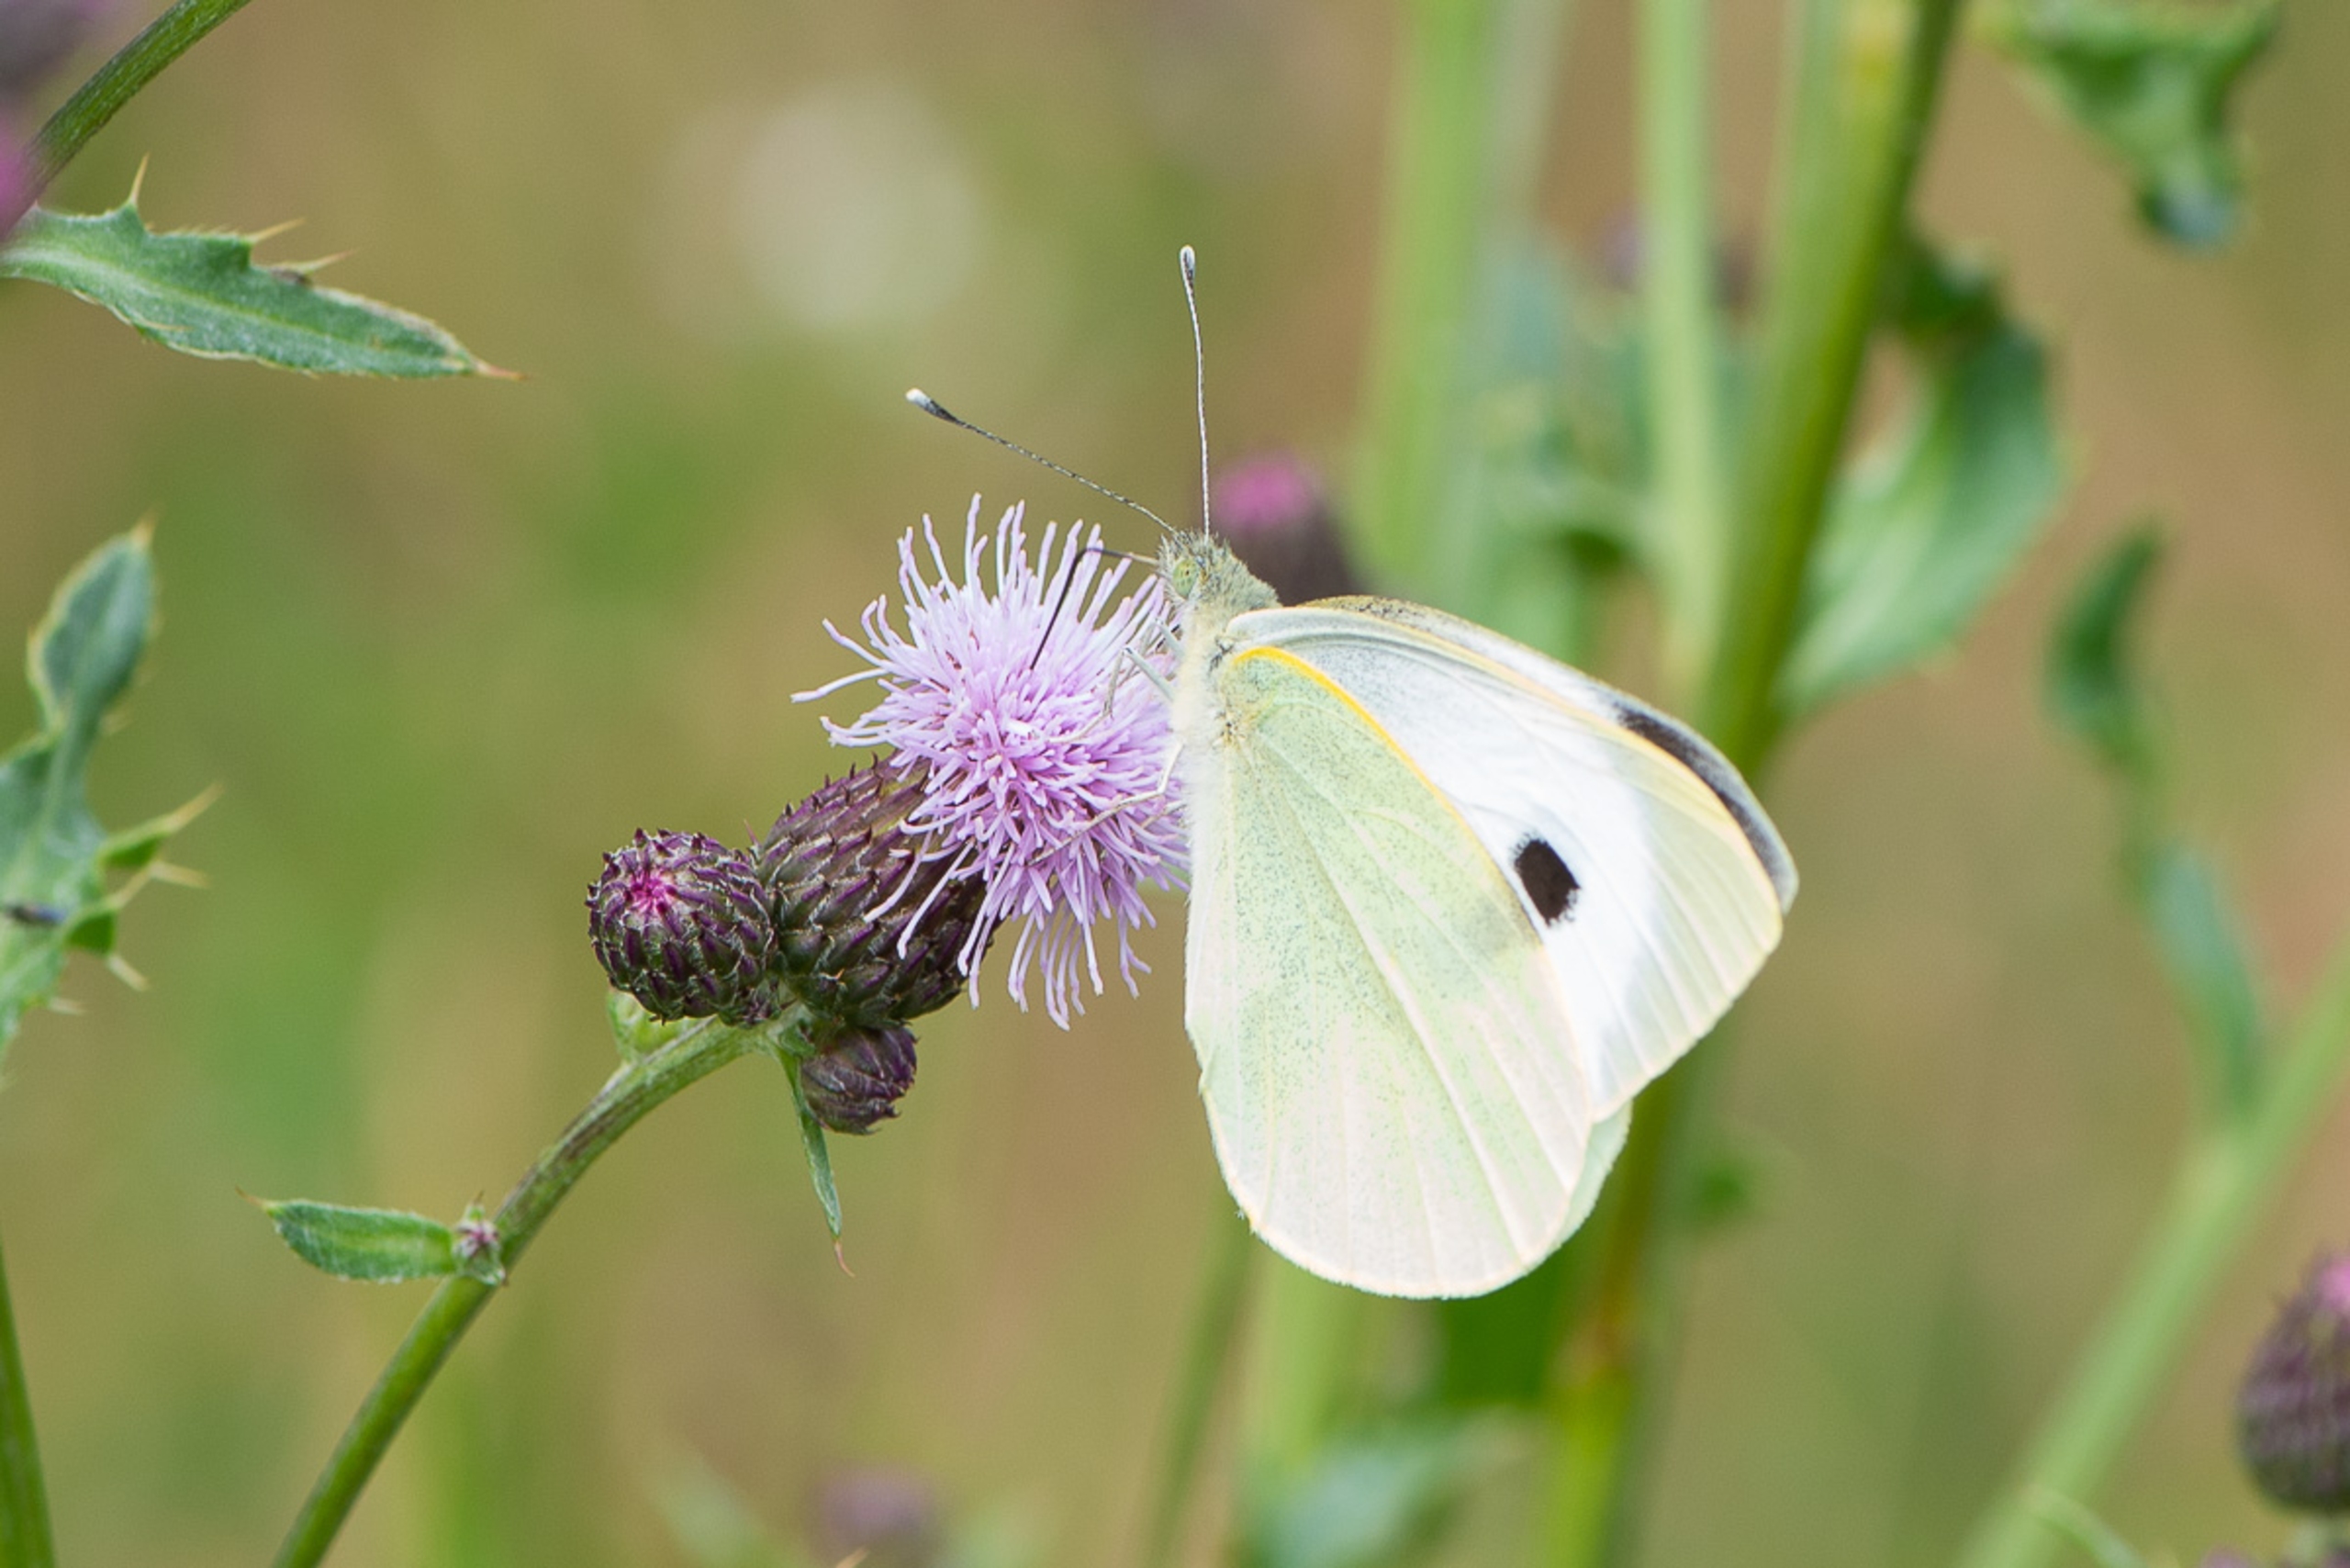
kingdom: Animalia
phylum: Arthropoda
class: Insecta
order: Lepidoptera
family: Pieridae
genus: Pieris
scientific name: Pieris brassicae
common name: Stor kålsommerfugl
